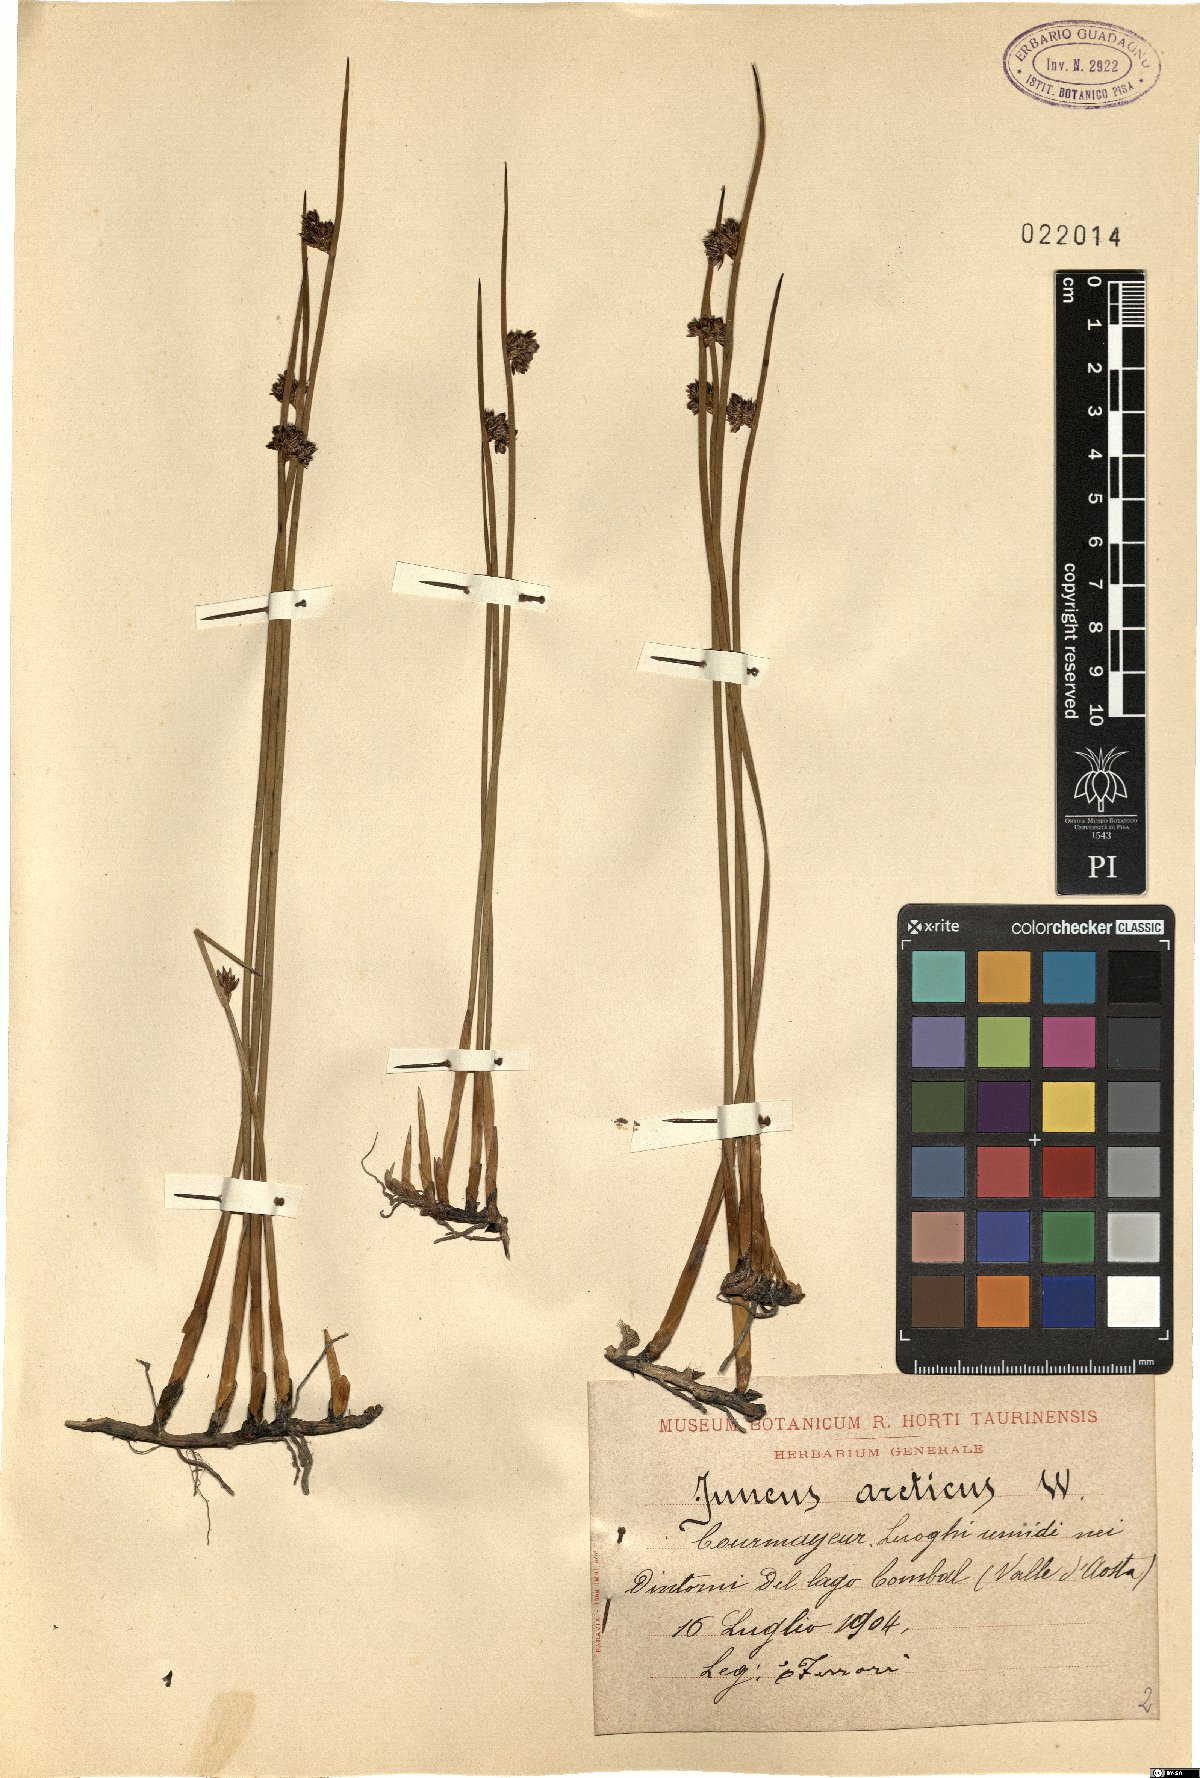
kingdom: Plantae
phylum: Tracheophyta
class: Liliopsida
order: Poales
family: Juncaceae
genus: Juncus
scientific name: Juncus arcticus
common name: Arctic rush
